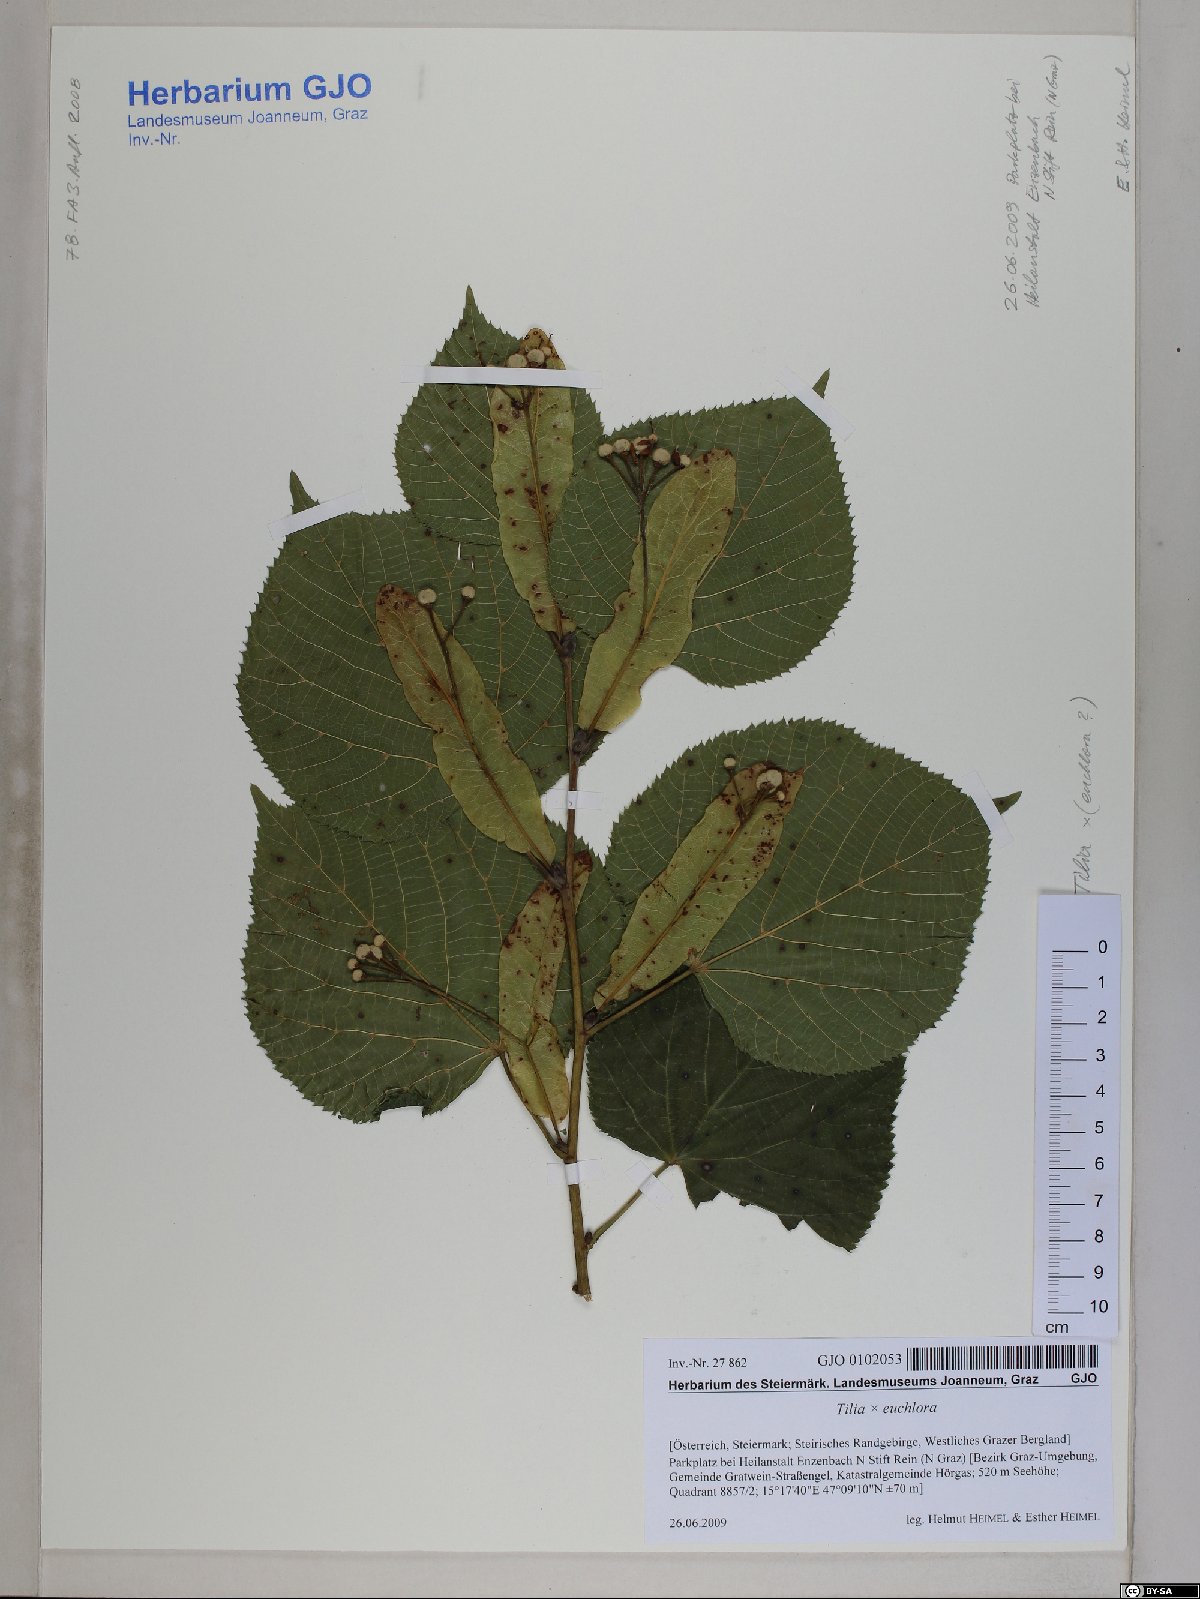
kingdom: Plantae
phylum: Tracheophyta
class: Magnoliopsida
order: Malvales
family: Tiliaceae
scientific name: Tiliaceae
